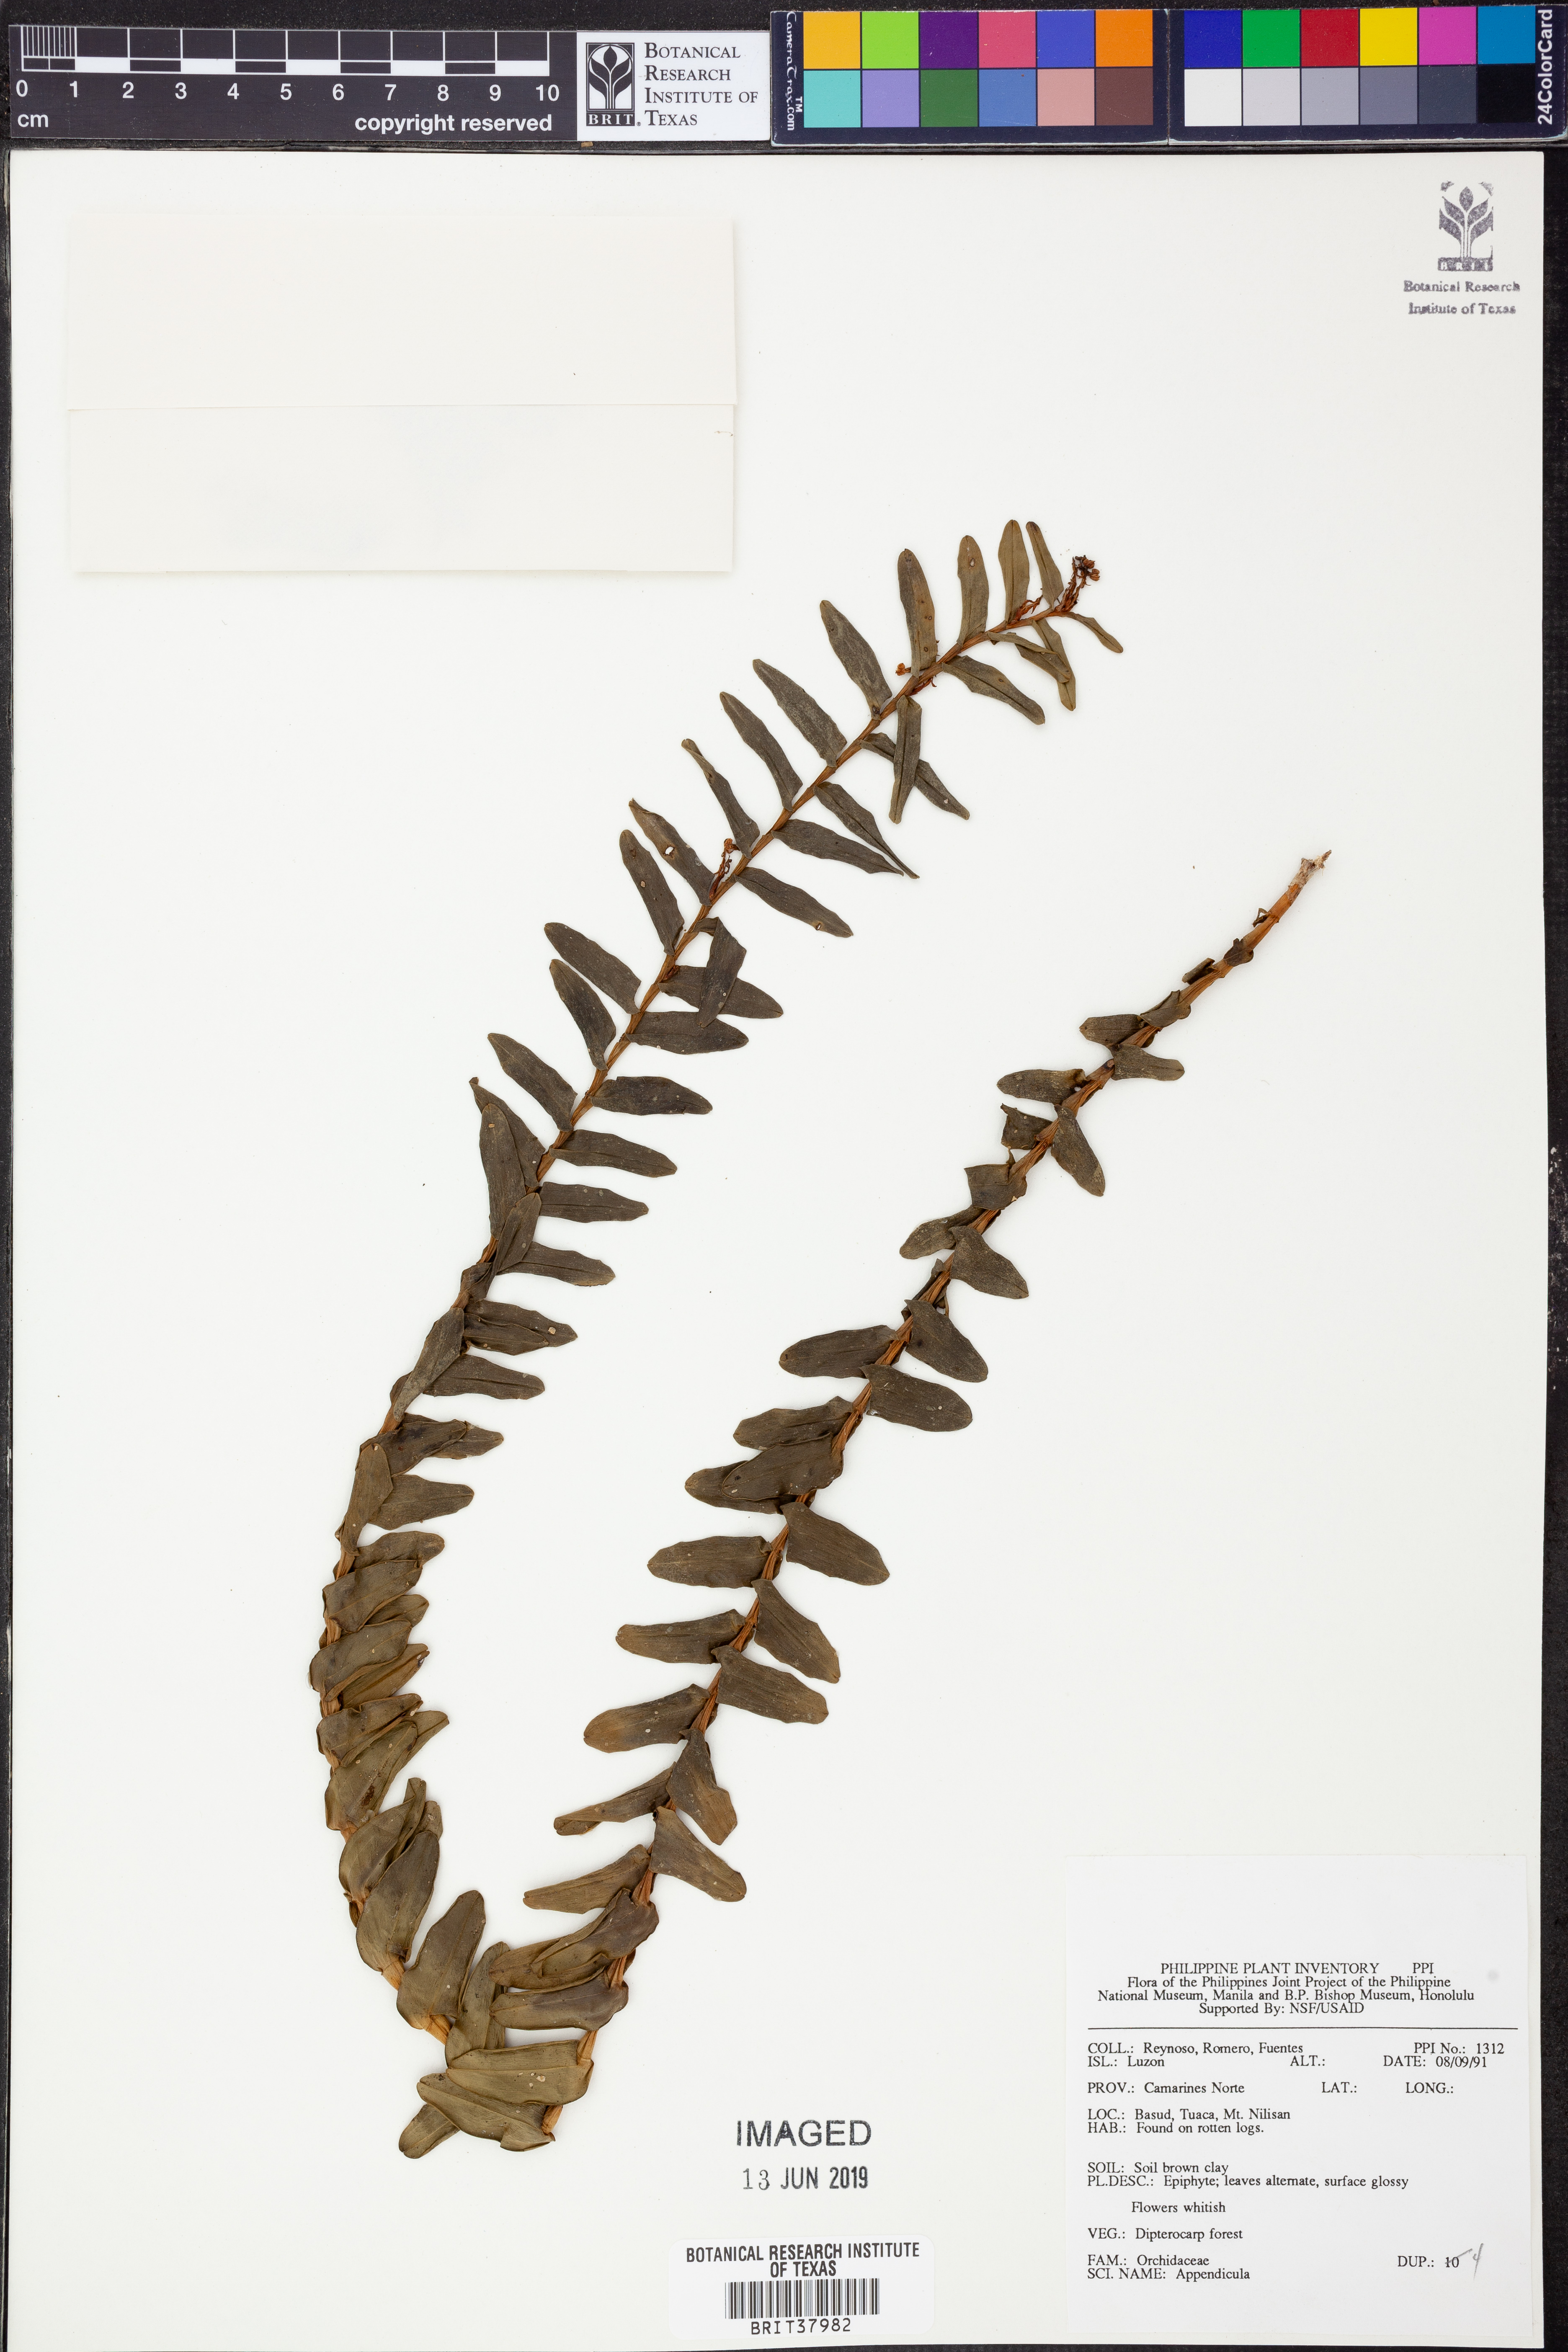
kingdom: Plantae
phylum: Tracheophyta
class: Liliopsida
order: Asparagales
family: Orchidaceae
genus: Appendicula
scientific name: Appendicula
